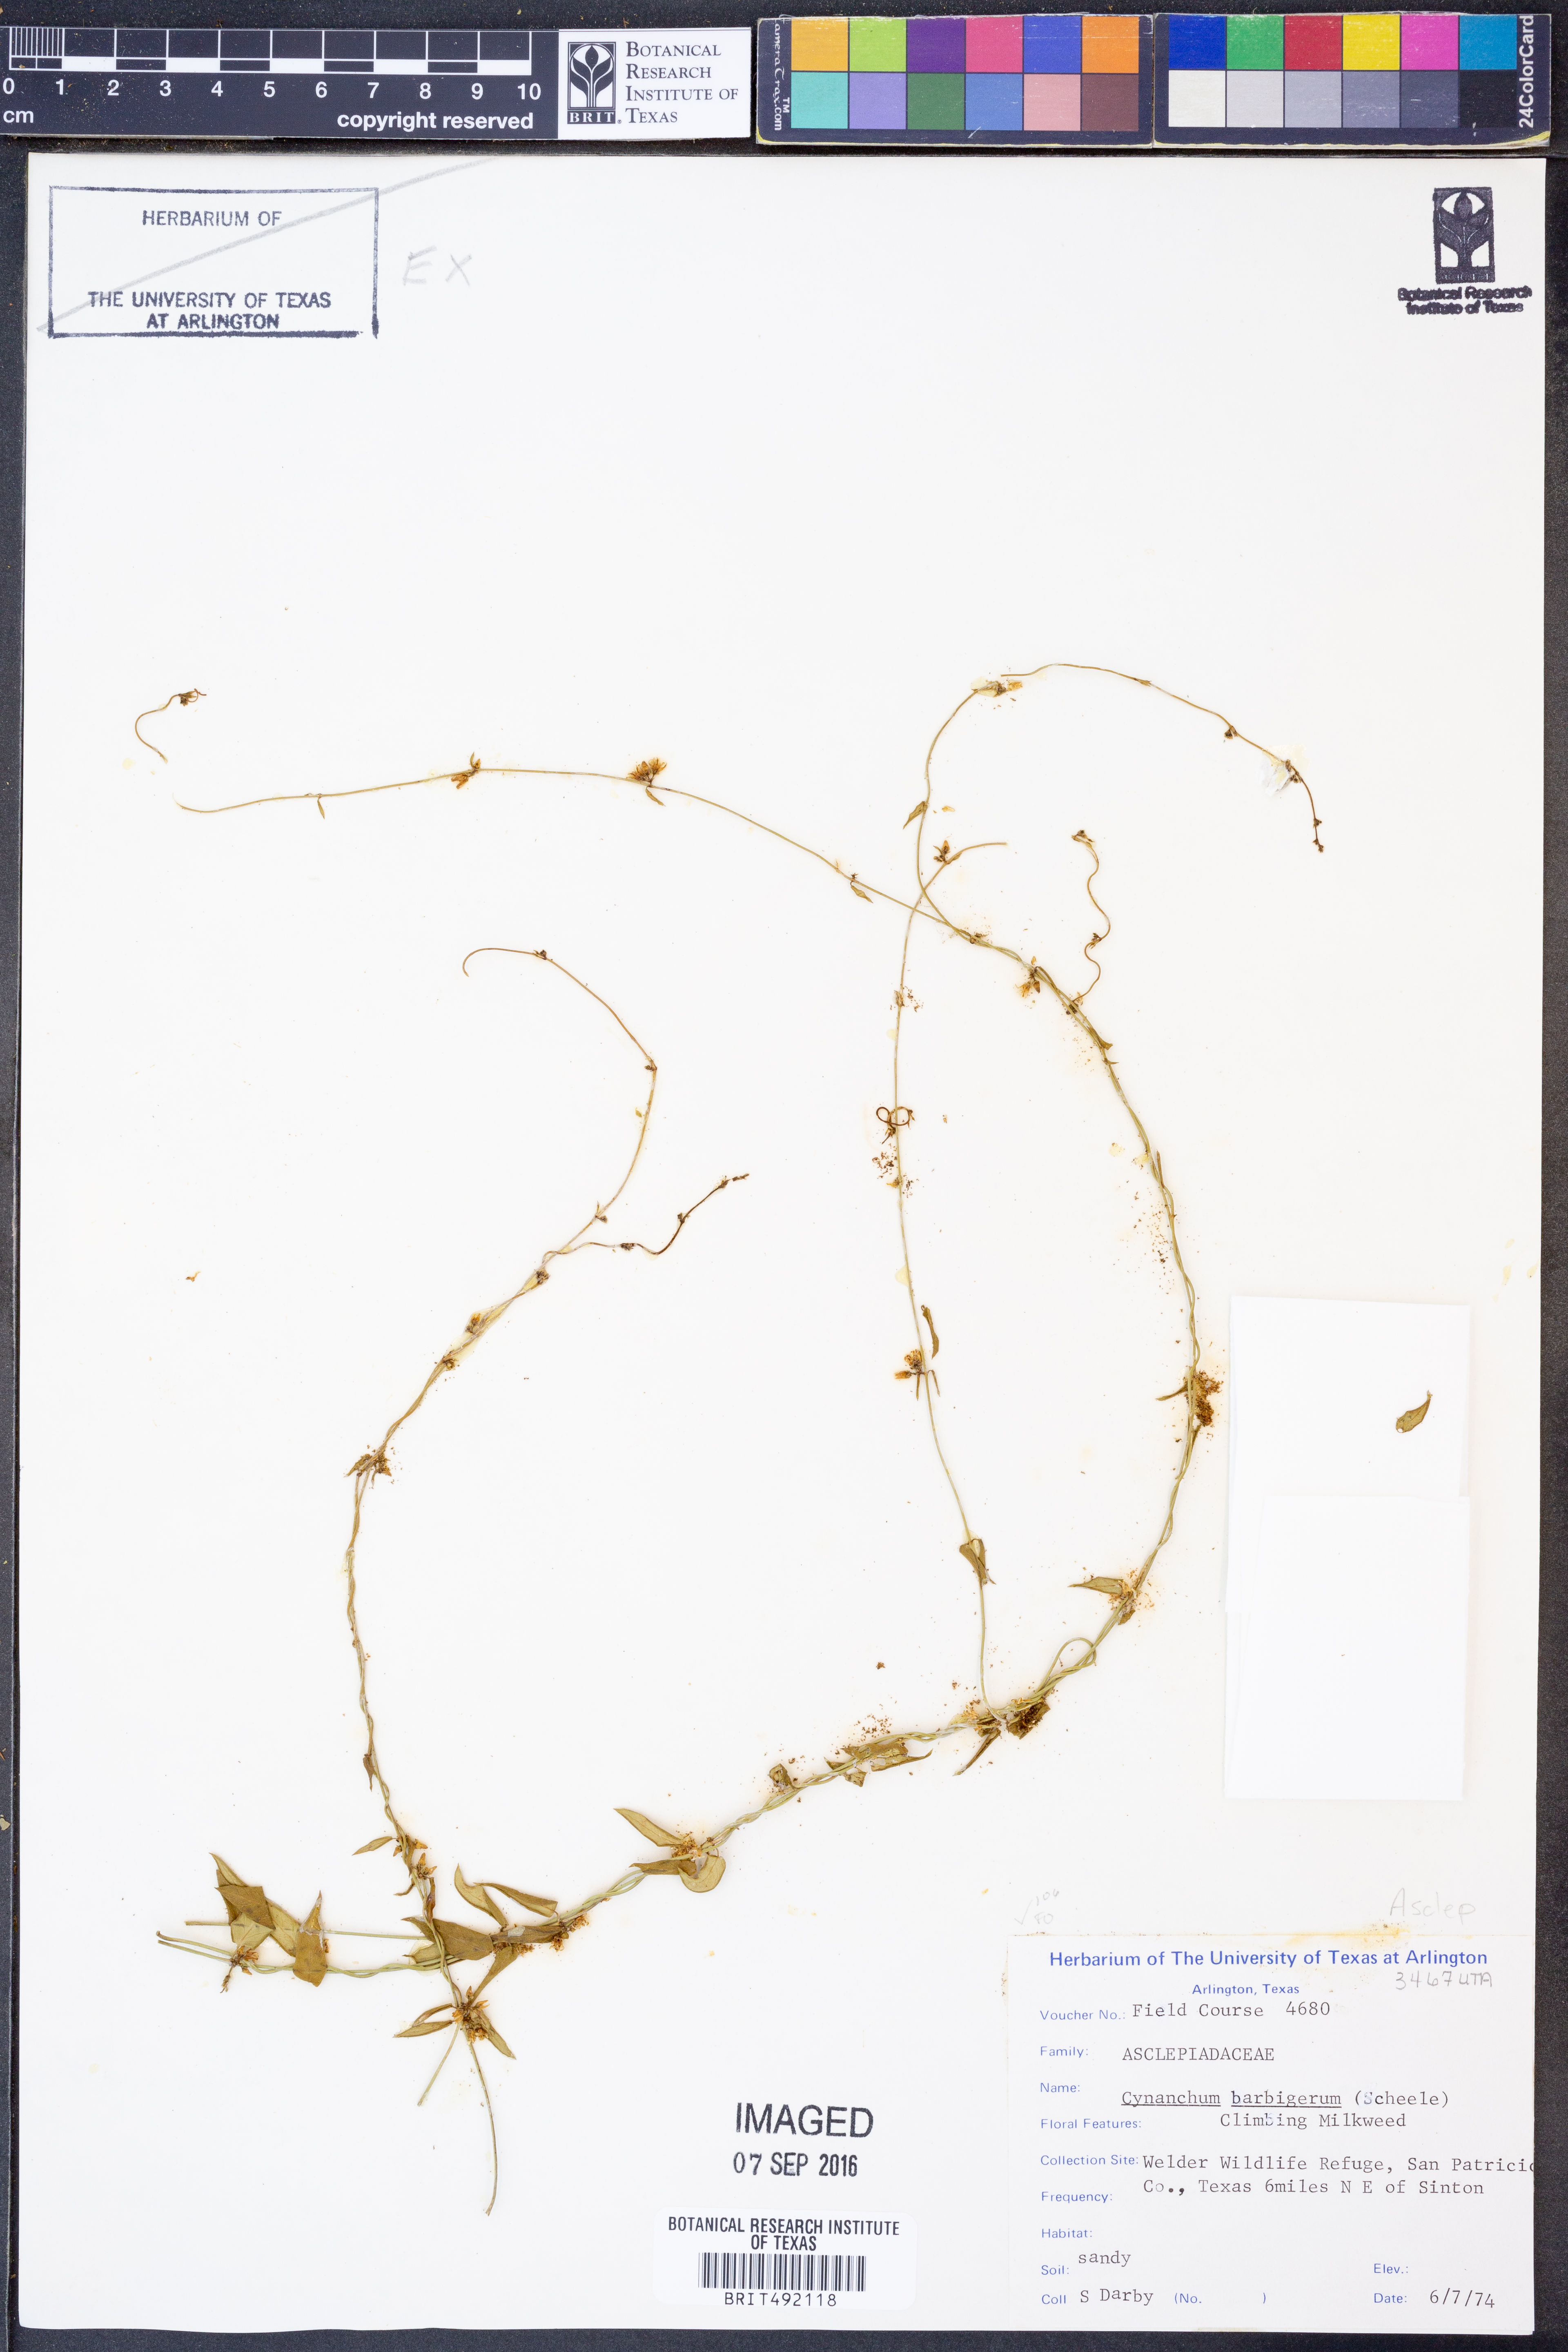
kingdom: Plantae
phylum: Tracheophyta
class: Magnoliopsida
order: Gentianales
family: Apocynaceae
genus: Metastelma
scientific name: Metastelma barbigerum
